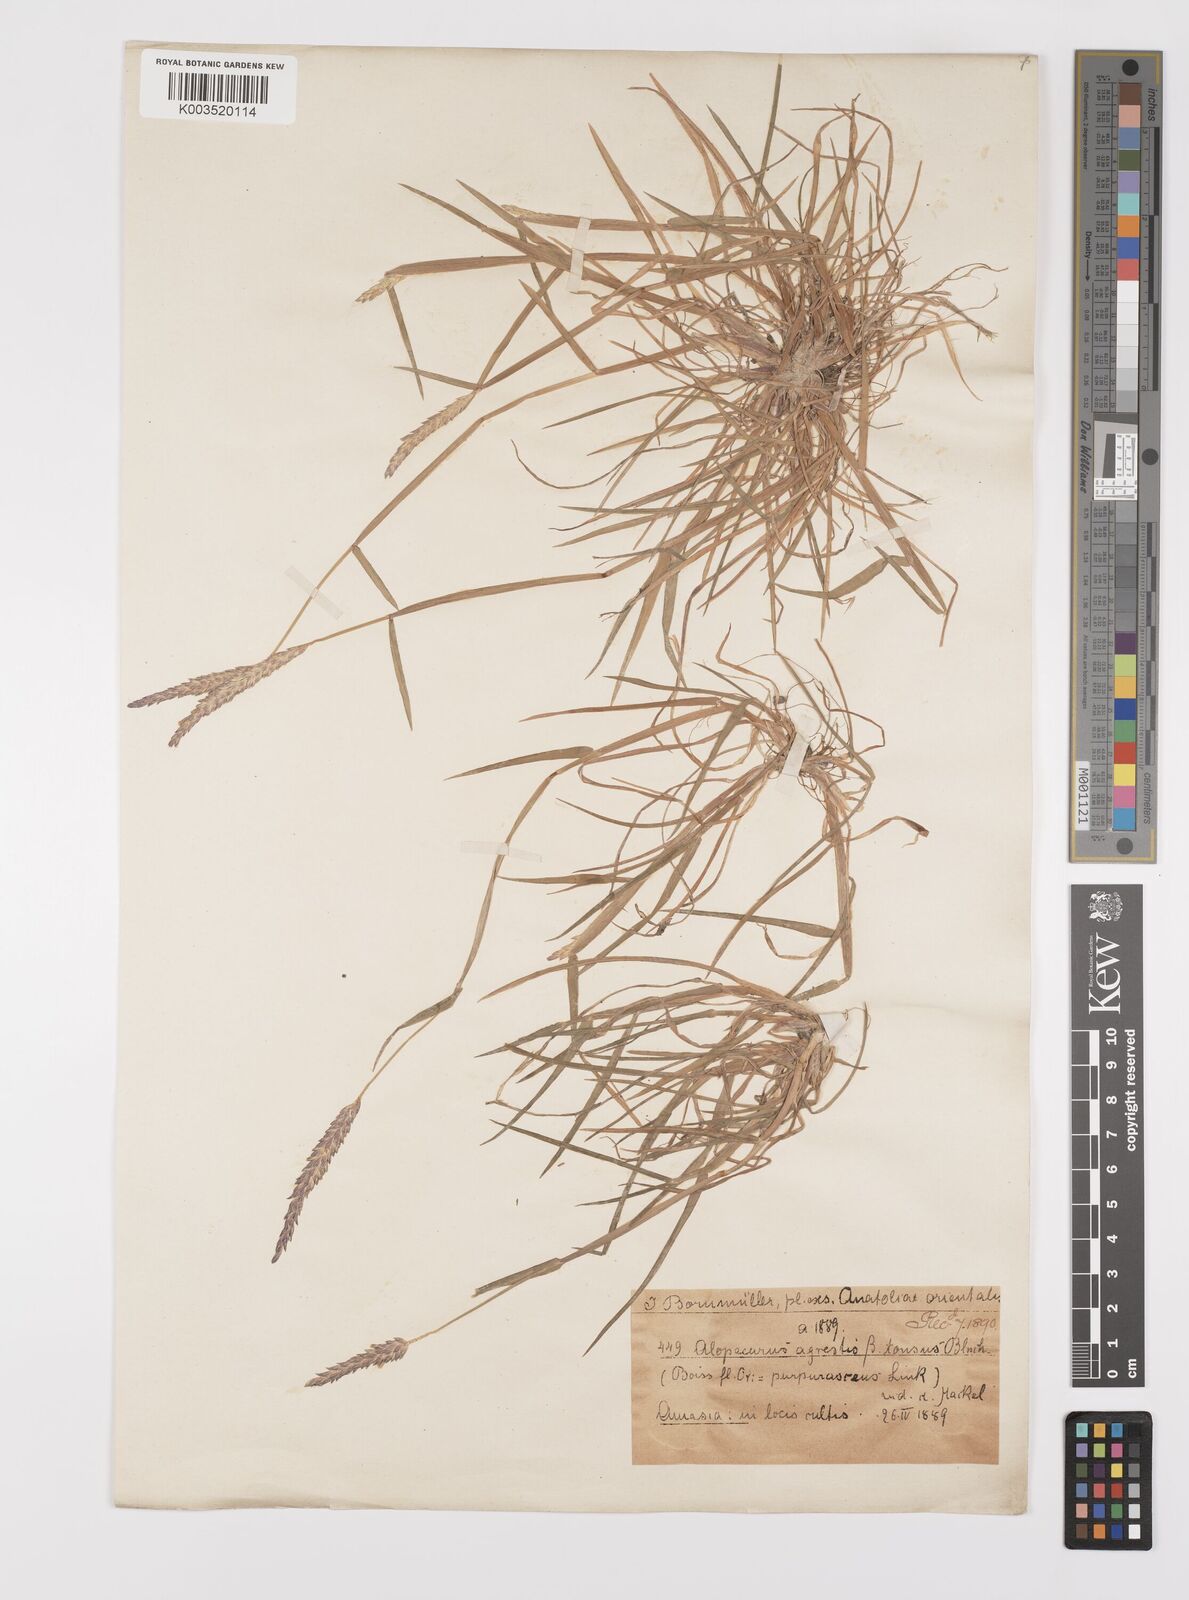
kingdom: Plantae
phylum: Tracheophyta
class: Liliopsida
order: Poales
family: Poaceae
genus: Alopecurus
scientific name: Alopecurus myosuroides
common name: Black-grass
